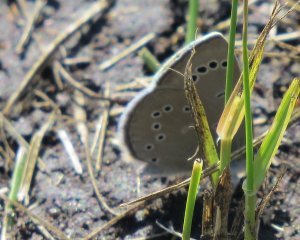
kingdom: Animalia
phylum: Arthropoda
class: Insecta
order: Lepidoptera
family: Lycaenidae
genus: Glaucopsyche
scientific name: Glaucopsyche lygdamus
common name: Silvery Blue
